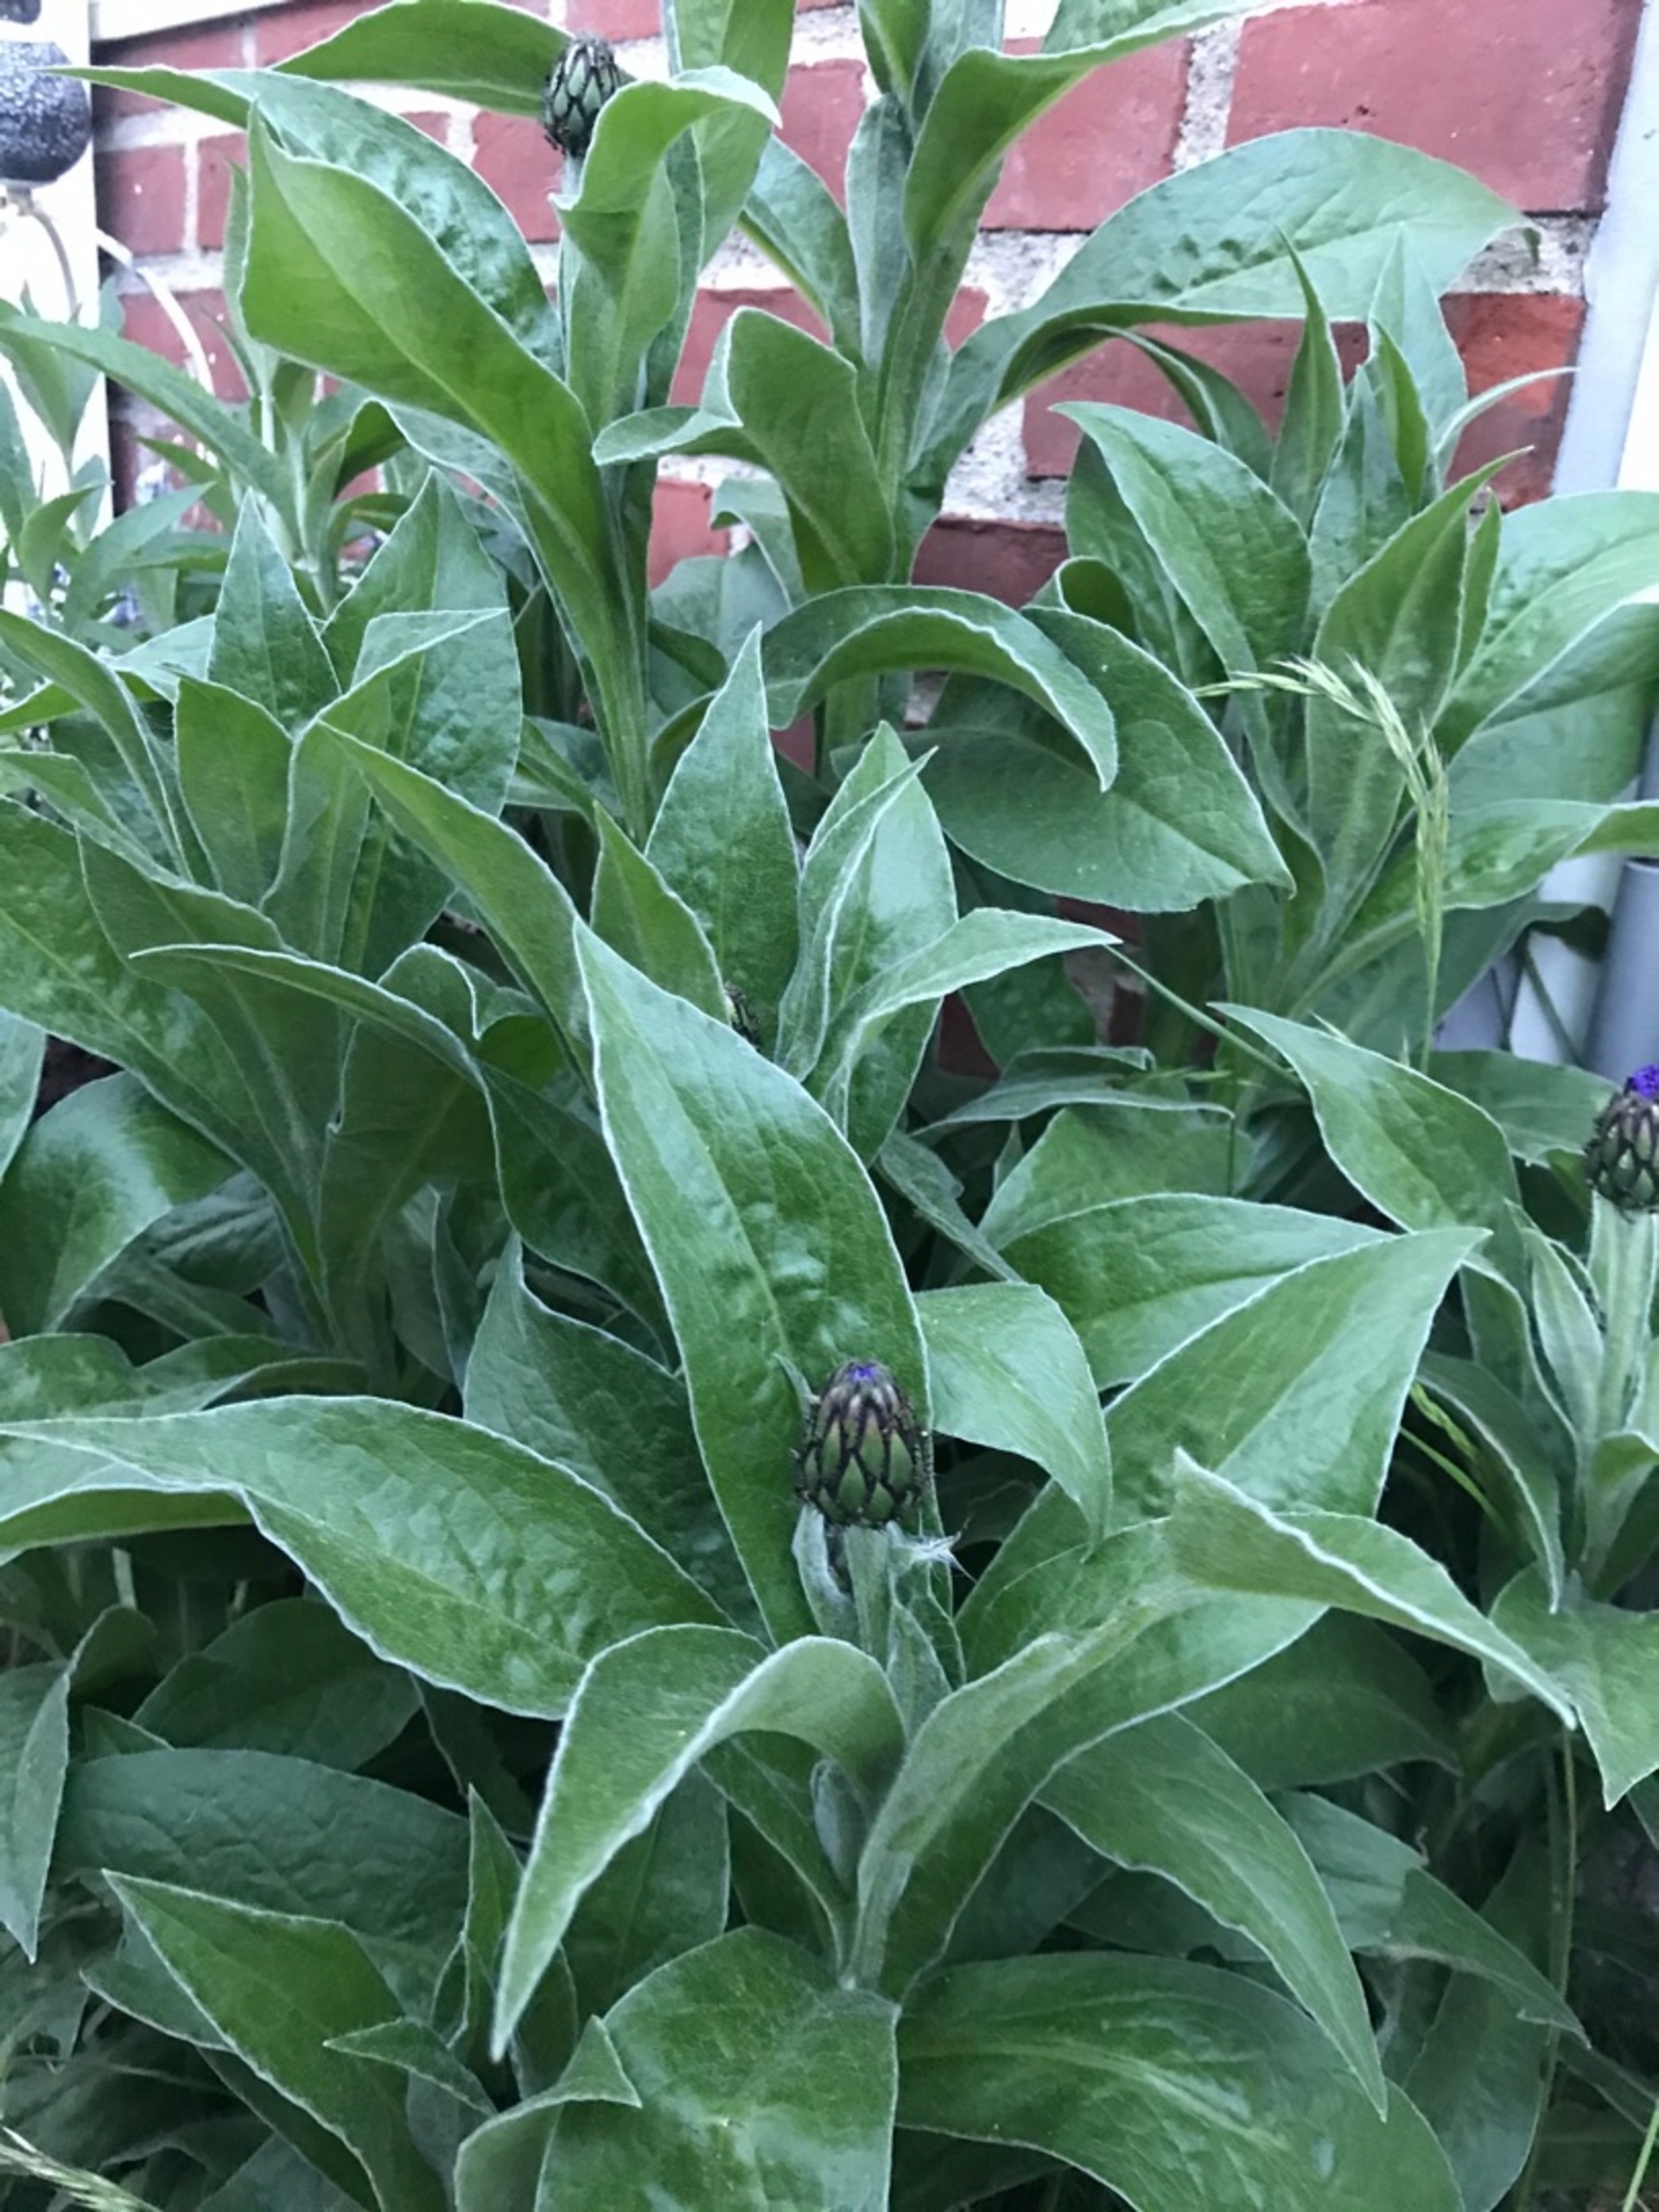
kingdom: Plantae
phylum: Tracheophyta
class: Magnoliopsida
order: Asterales
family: Asteraceae
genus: Centaurea
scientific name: Centaurea montana
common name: Bjerg-knopurt
